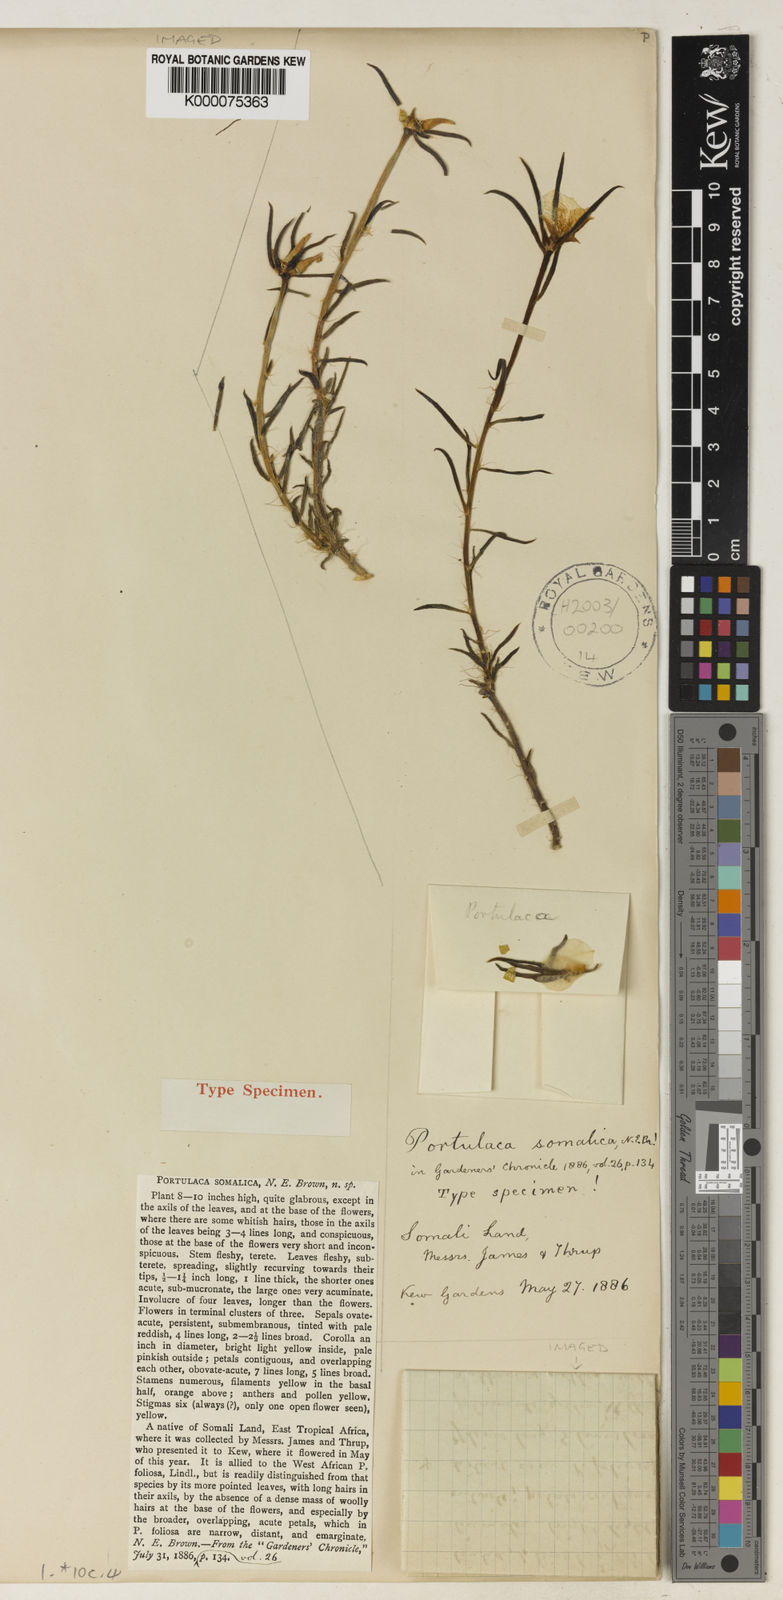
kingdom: Plantae
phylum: Tracheophyta
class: Magnoliopsida
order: Caryophyllales
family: Portulacaceae
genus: Portulaca
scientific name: Portulaca
